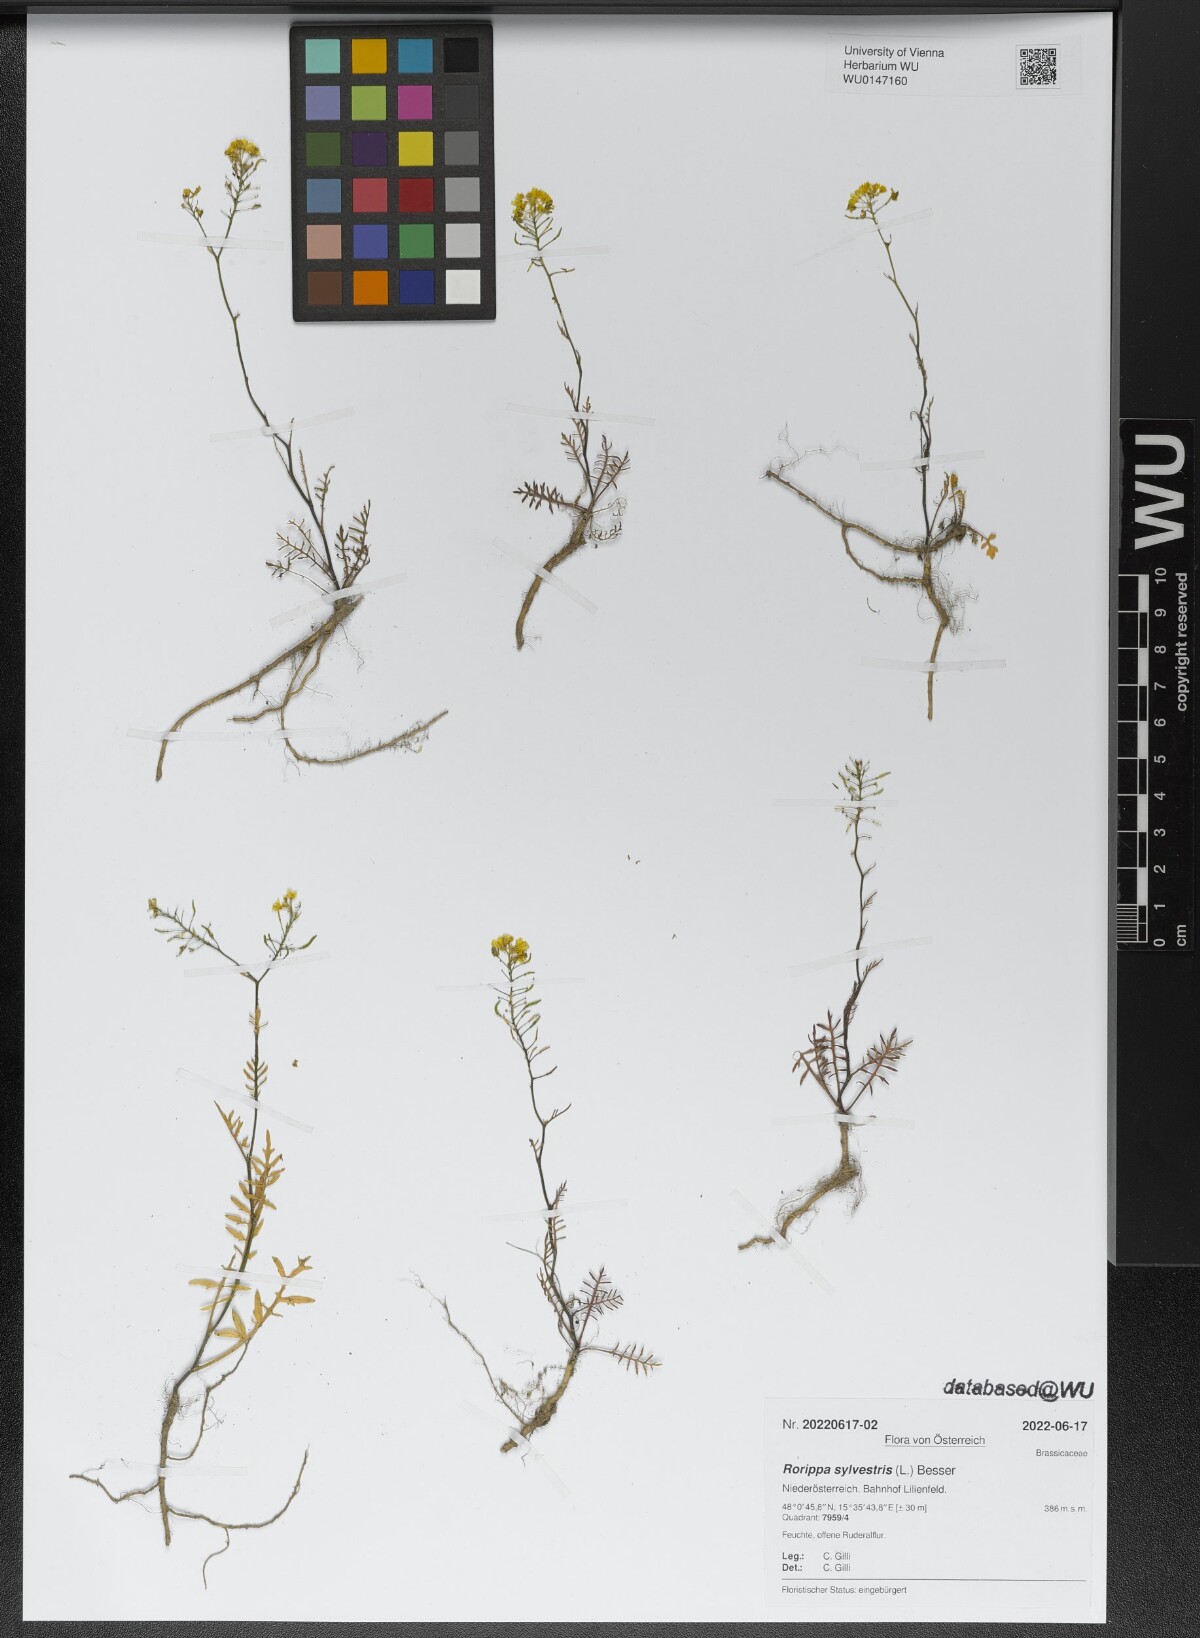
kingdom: Plantae
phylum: Tracheophyta
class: Magnoliopsida
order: Brassicales
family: Brassicaceae
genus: Rorippa
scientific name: Rorippa sylvestris
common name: Creeping yellowcress
